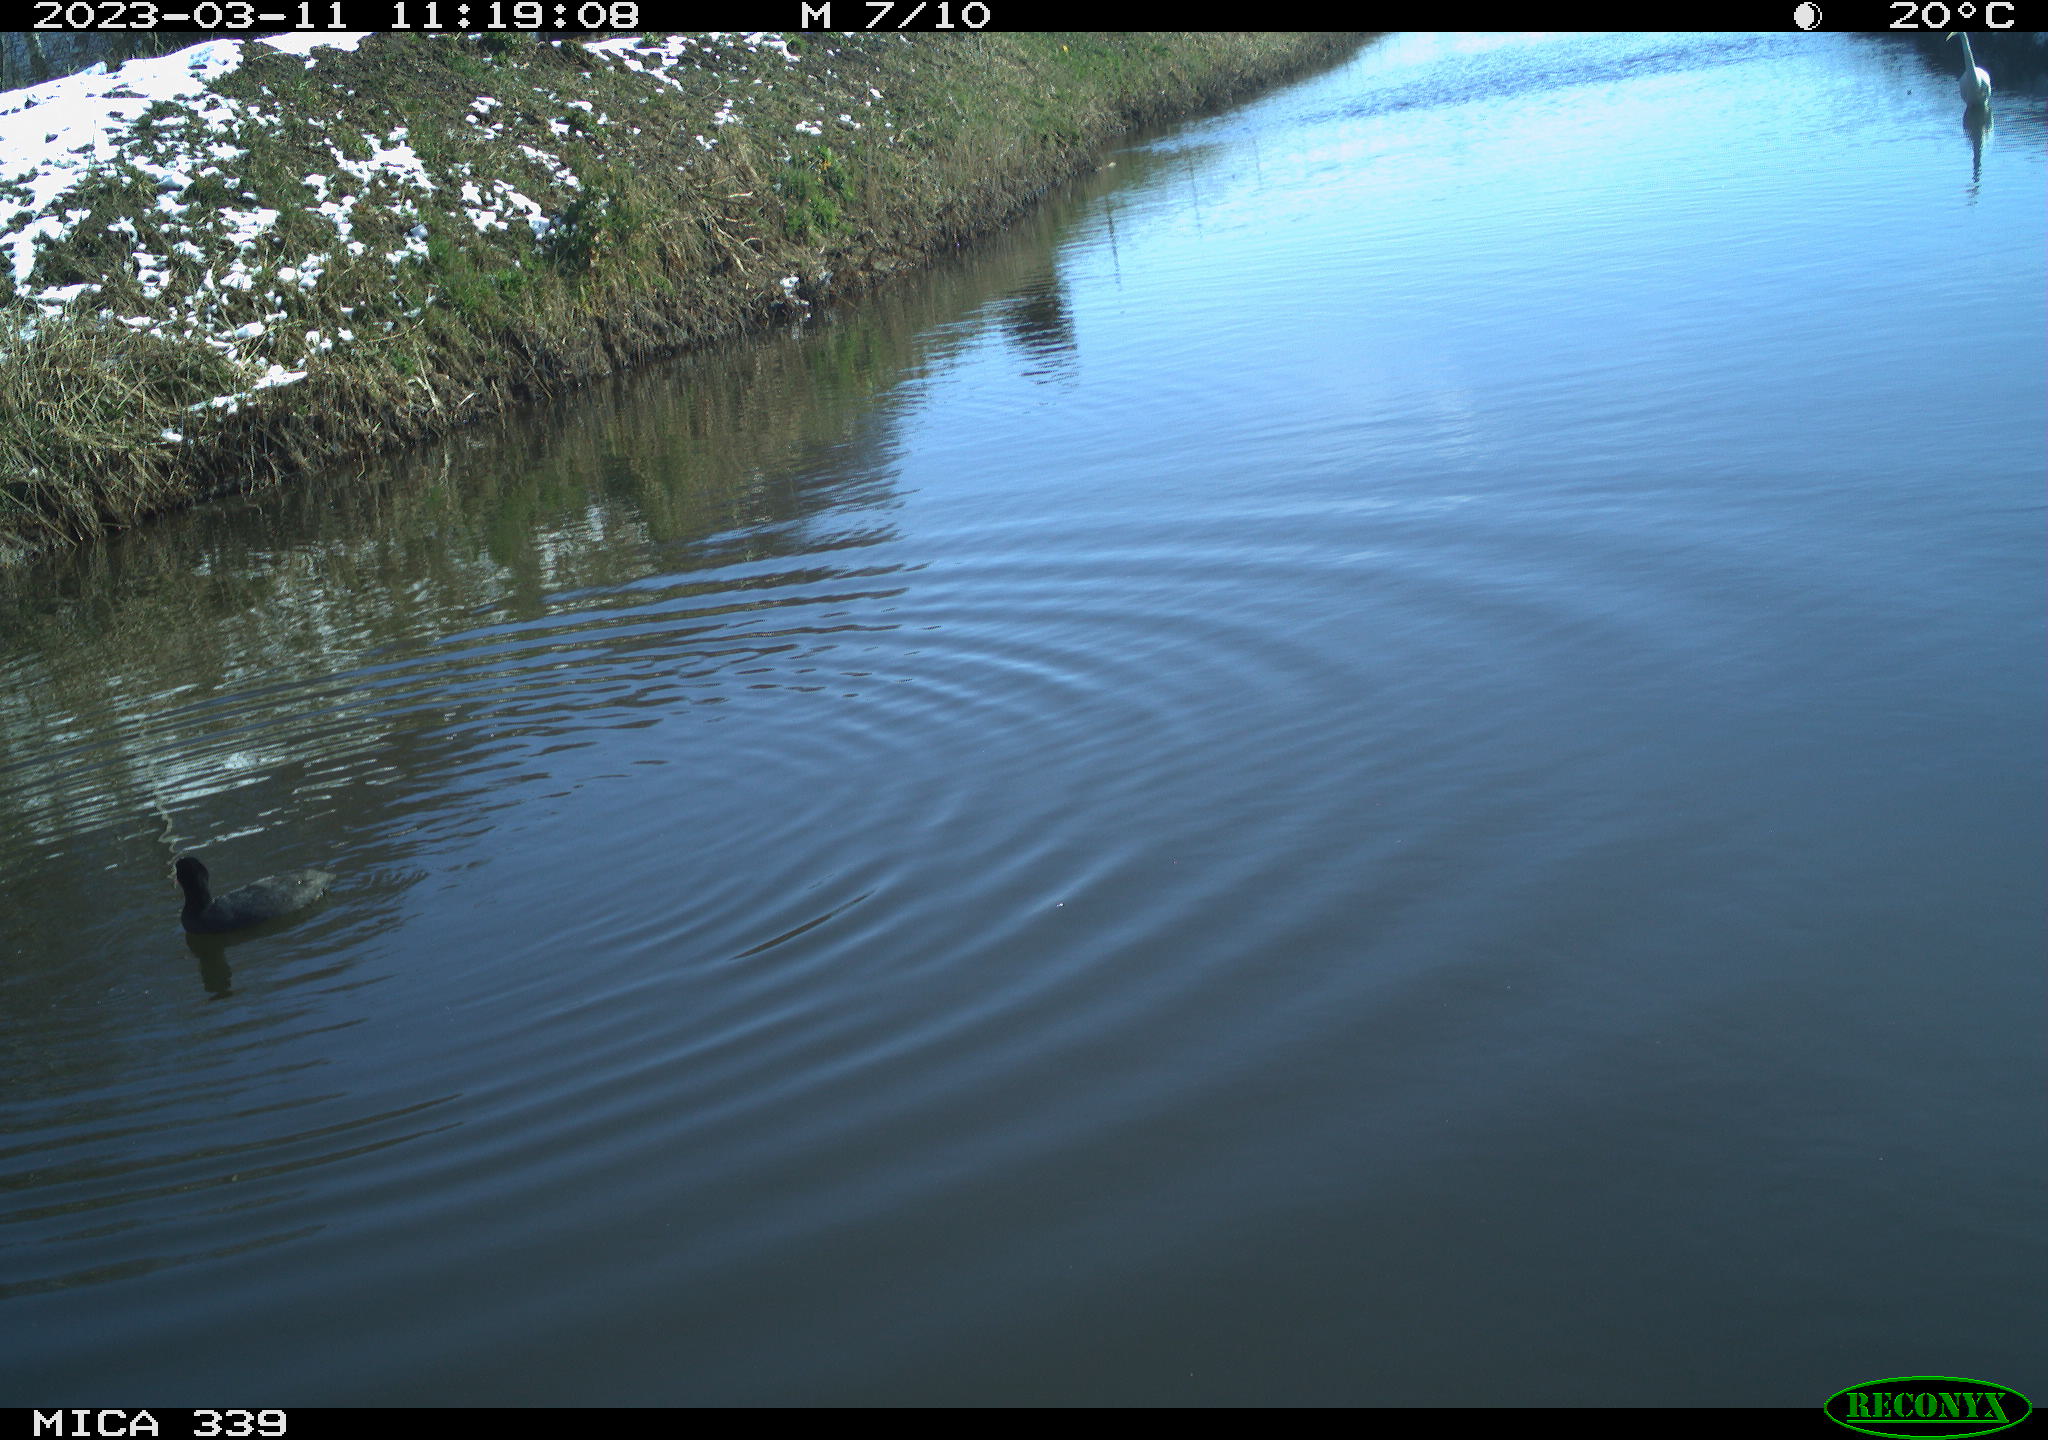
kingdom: Animalia
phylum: Chordata
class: Aves
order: Gruiformes
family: Rallidae
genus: Fulica
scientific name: Fulica atra
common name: Eurasian coot
